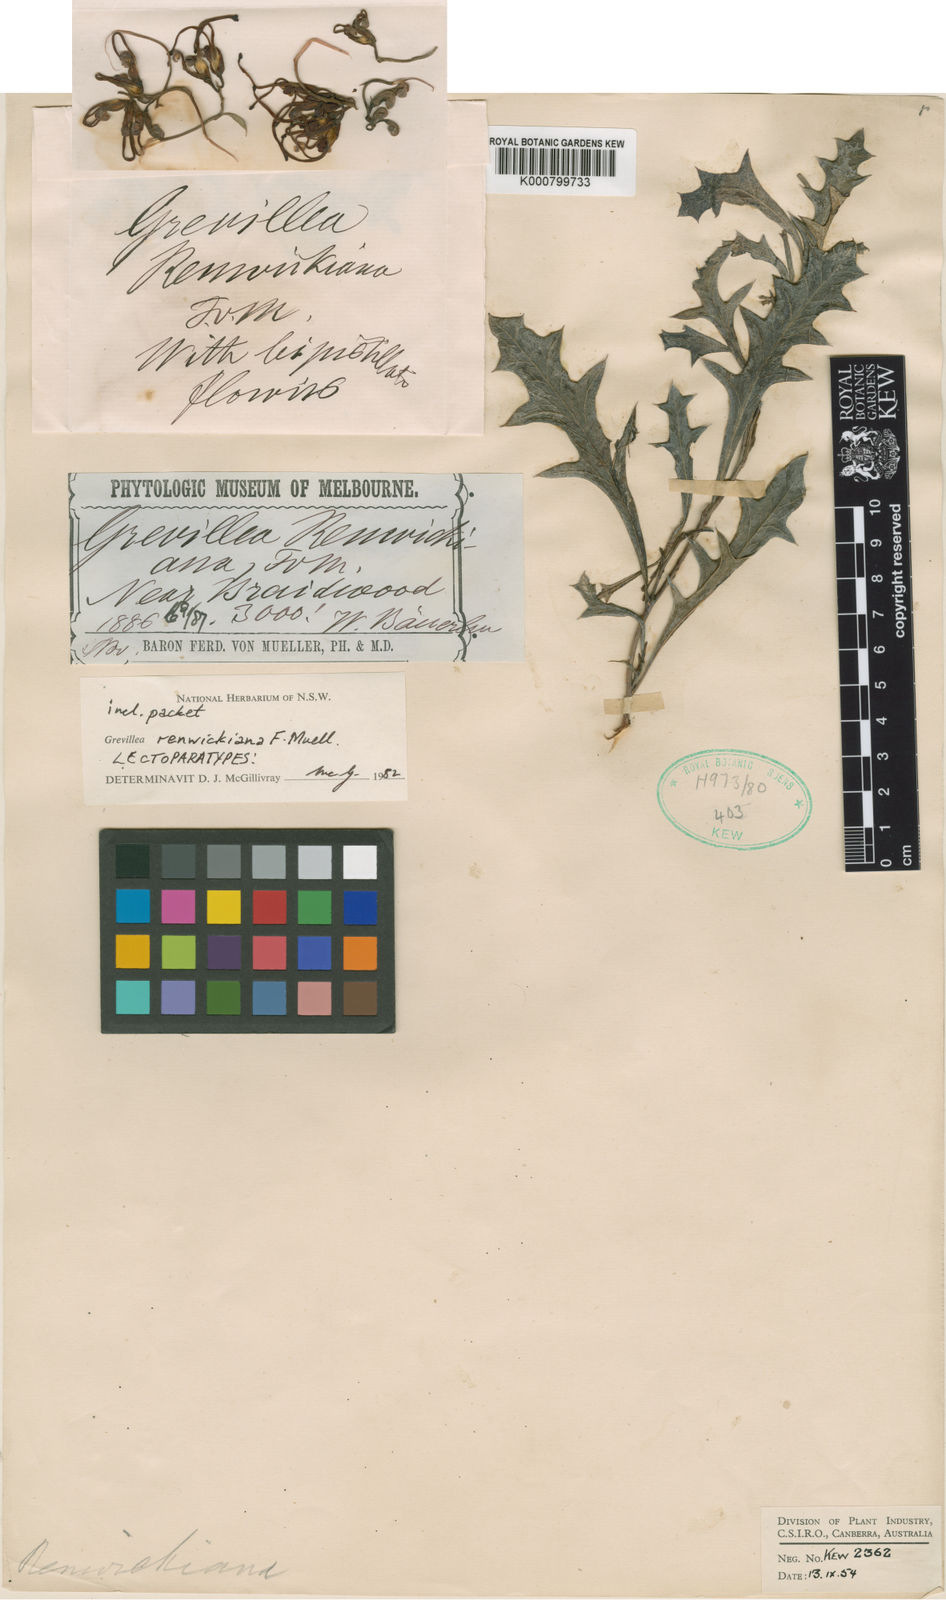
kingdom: Plantae
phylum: Tracheophyta
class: Magnoliopsida
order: Proteales
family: Proteaceae
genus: Grevillea
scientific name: Grevillea renwickiana
